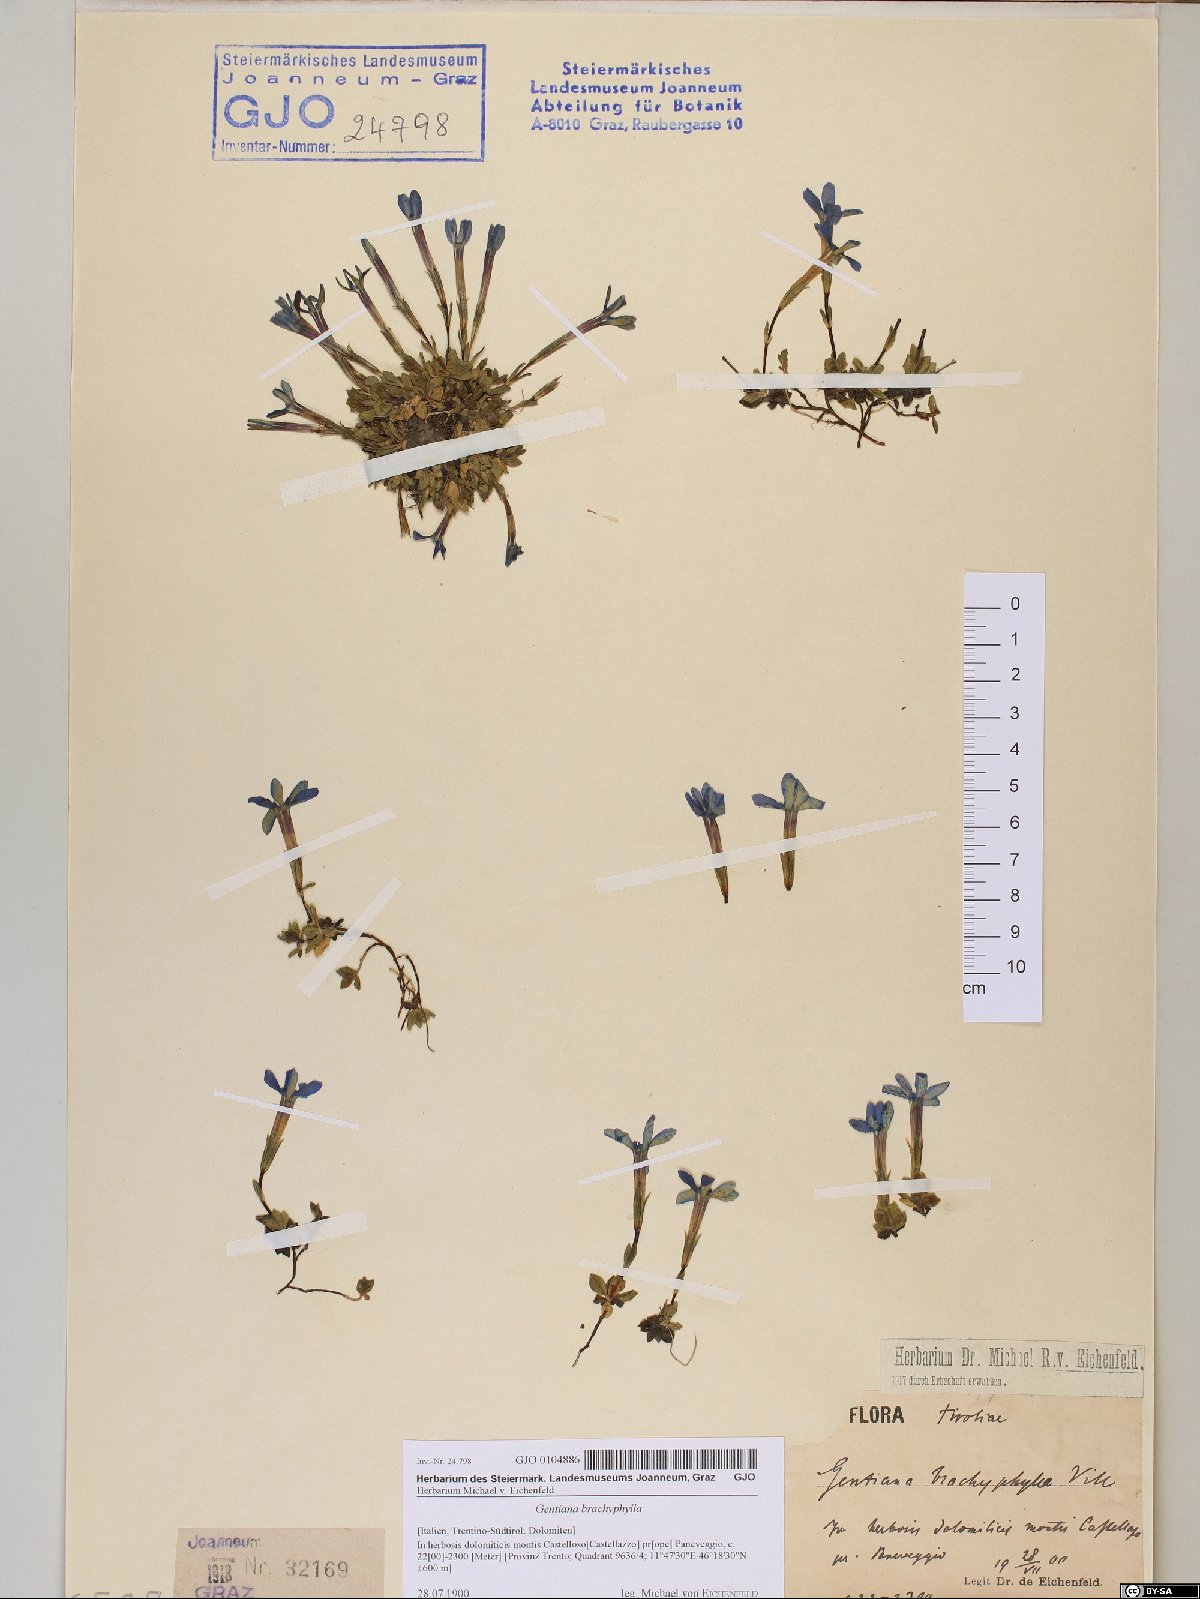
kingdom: Plantae
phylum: Tracheophyta
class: Magnoliopsida
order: Gentianales
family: Gentianaceae
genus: Gentiana
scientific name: Gentiana brachyphylla
